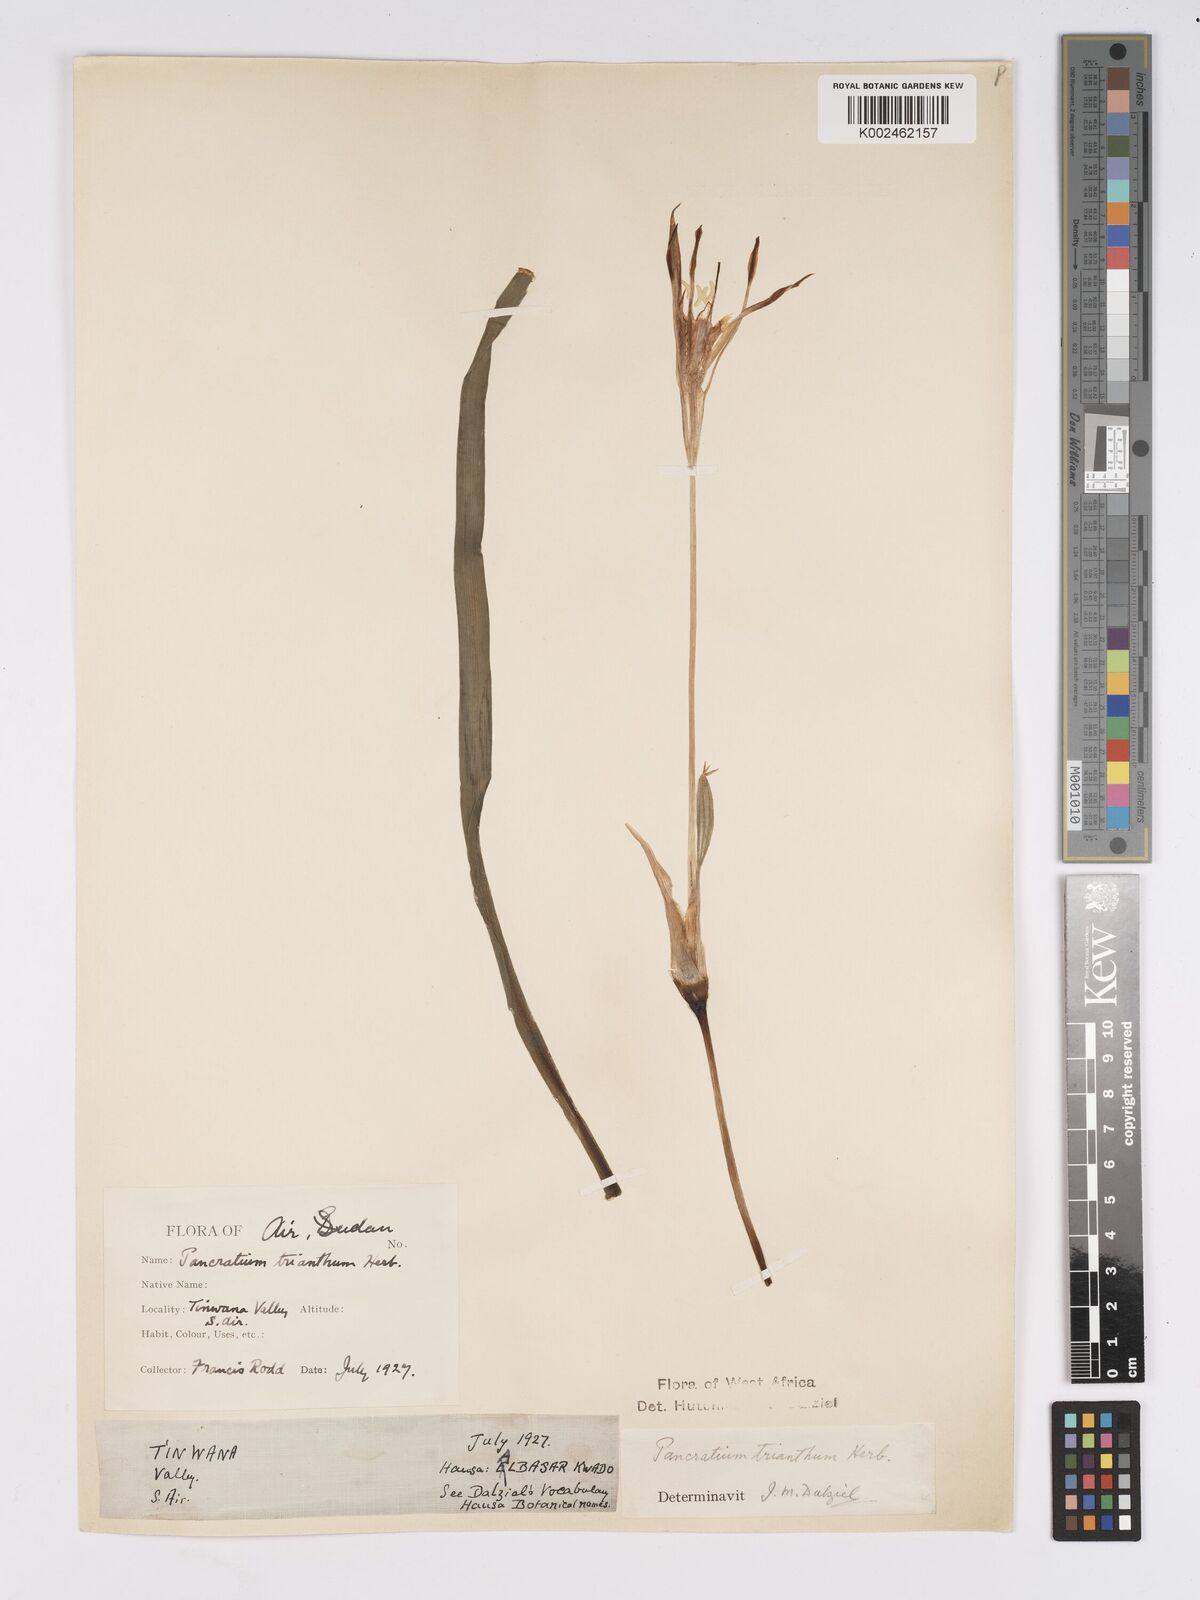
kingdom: Plantae
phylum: Tracheophyta
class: Liliopsida
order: Asparagales
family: Amaryllidaceae
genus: Pancratium
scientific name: Pancratium trianthum
